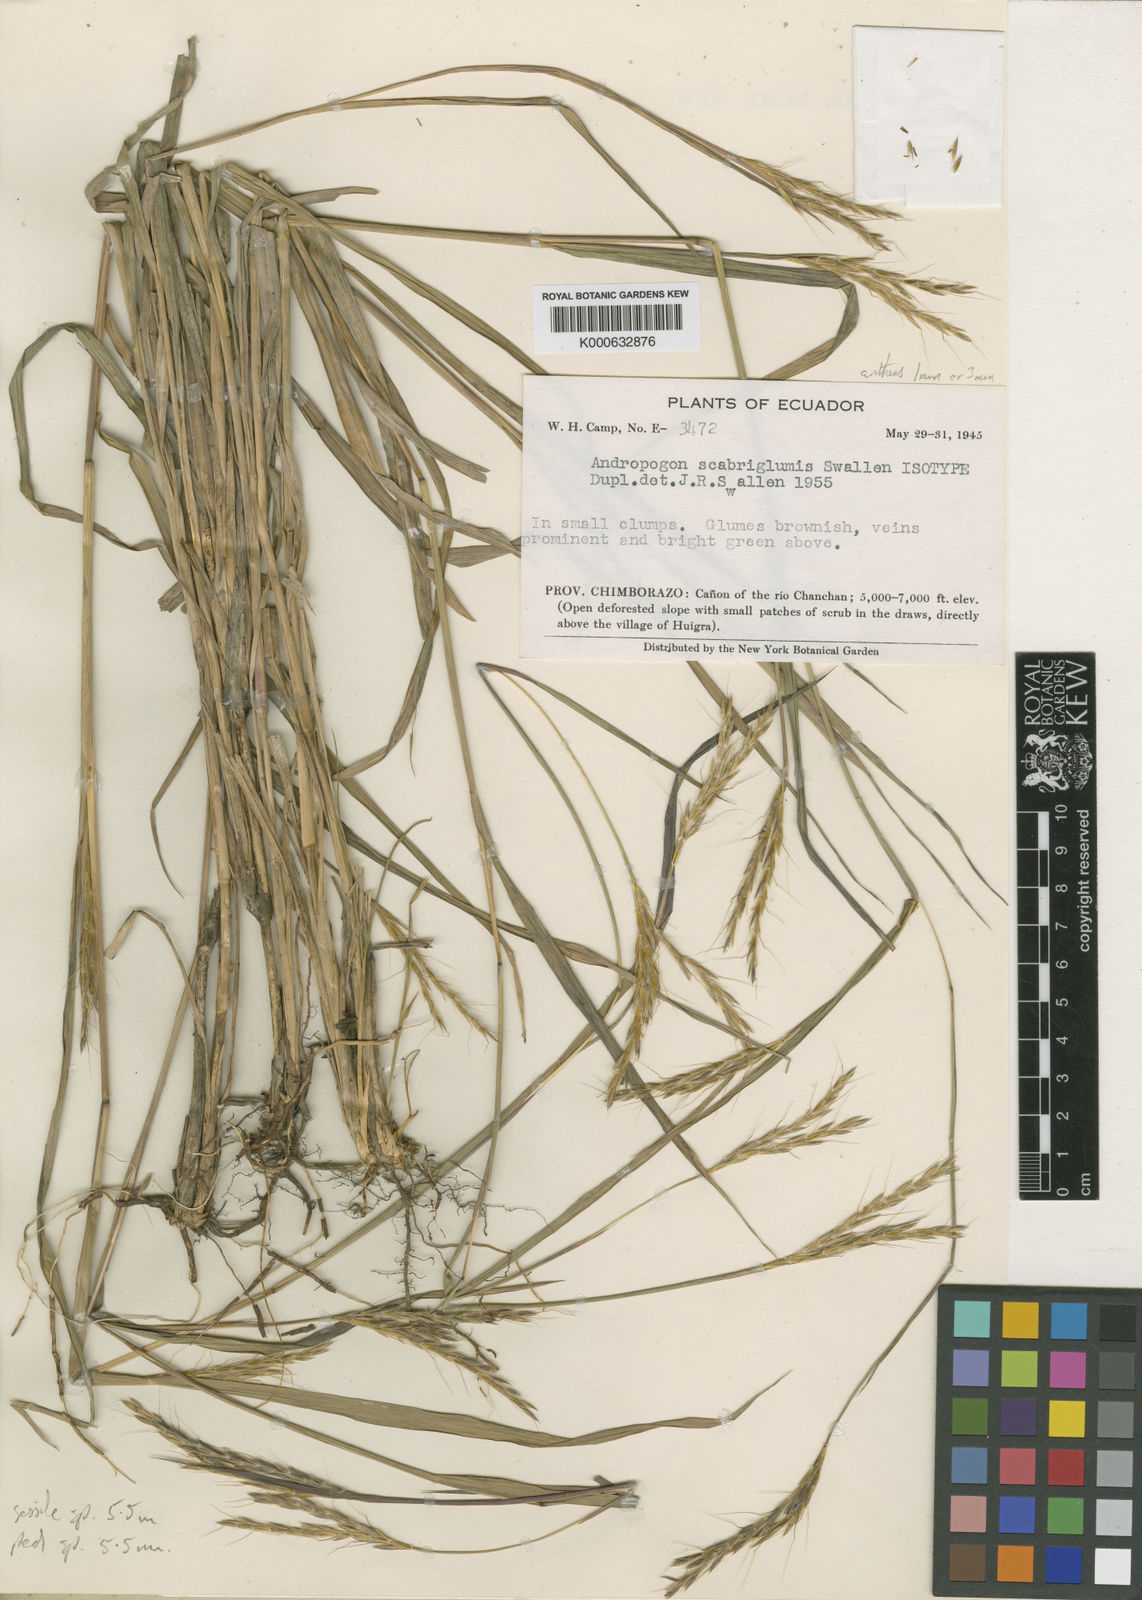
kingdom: Plantae
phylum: Tracheophyta
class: Liliopsida
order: Poales
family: Poaceae
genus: Andropogon
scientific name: Andropogon scabriglumis
